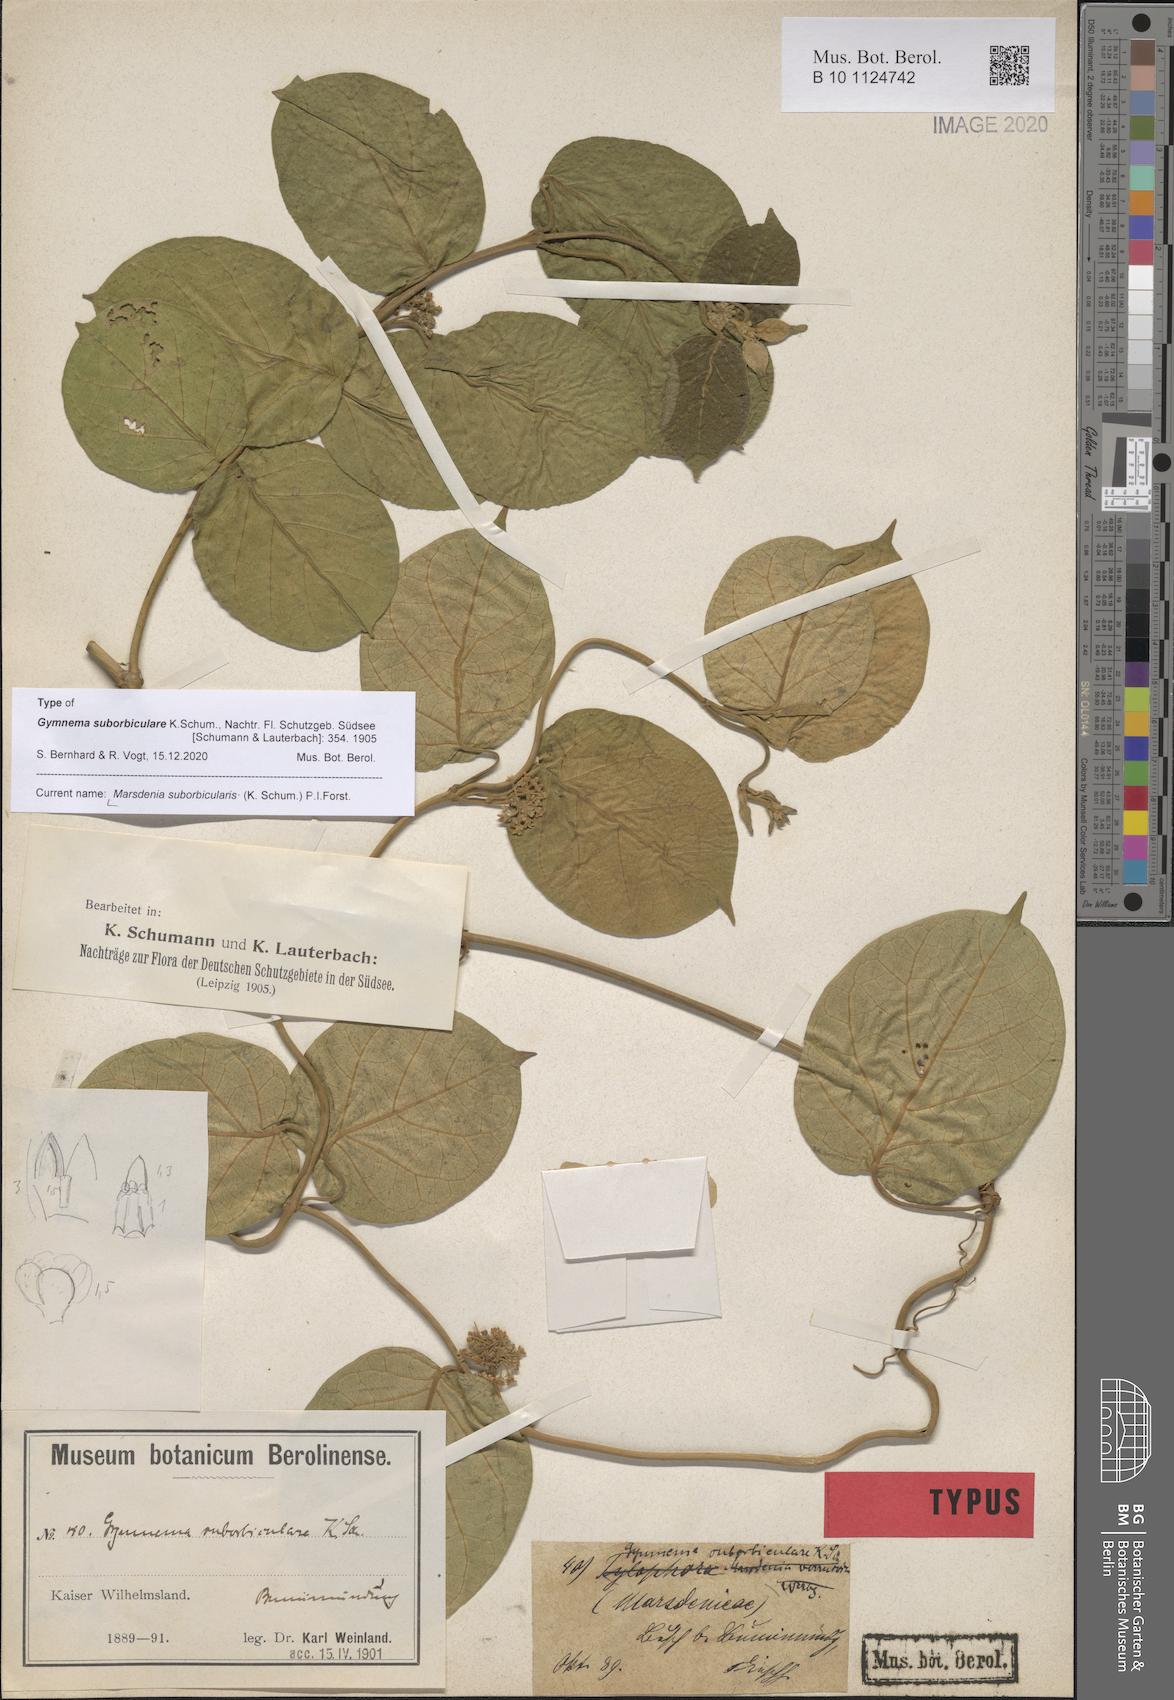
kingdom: Plantae
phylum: Tracheophyta
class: Magnoliopsida
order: Gentianales
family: Apocynaceae
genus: Gymnema
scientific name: Gymnema suborbiculare
